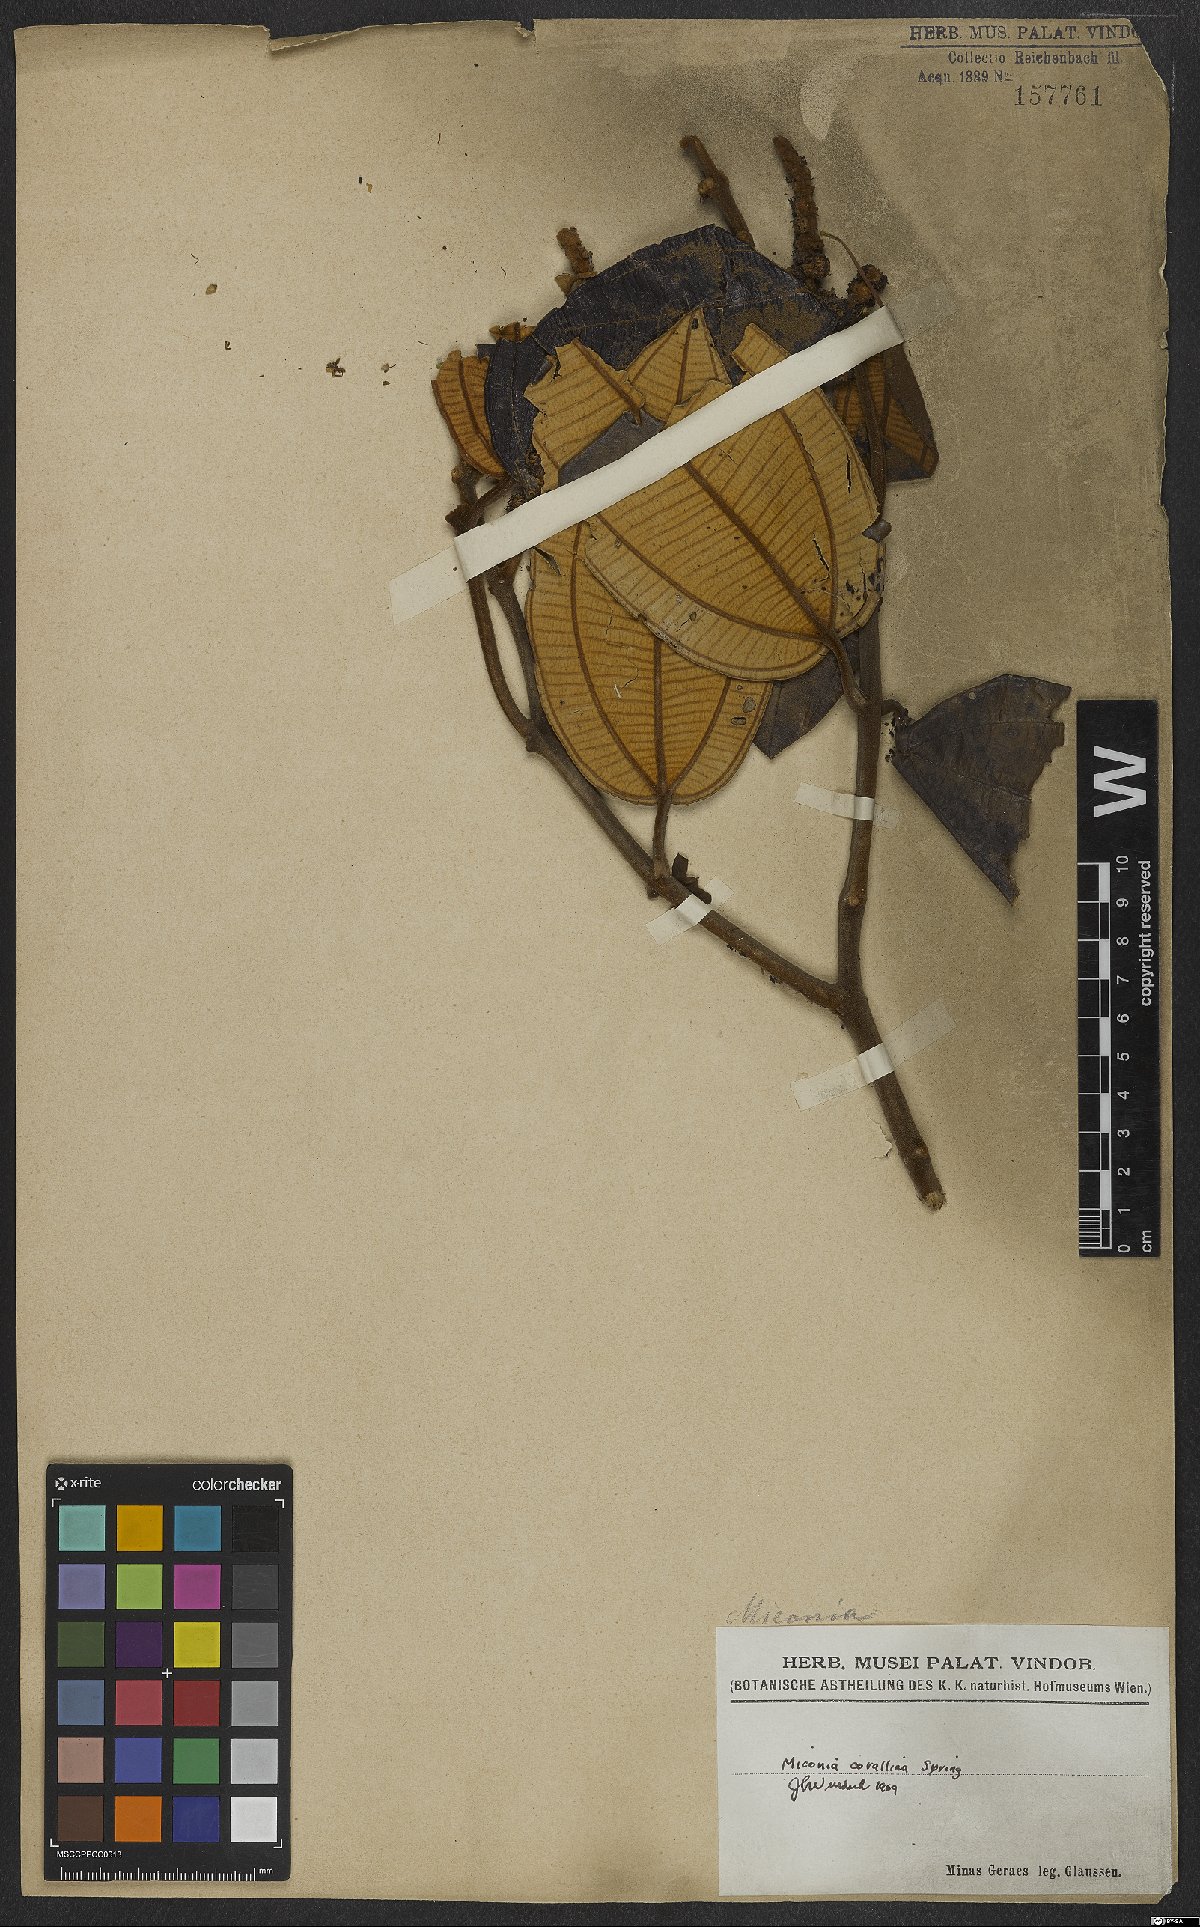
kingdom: Plantae
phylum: Tracheophyta
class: Magnoliopsida
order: Myrtales
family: Melastomataceae
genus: Miconia
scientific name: Miconia corallina
